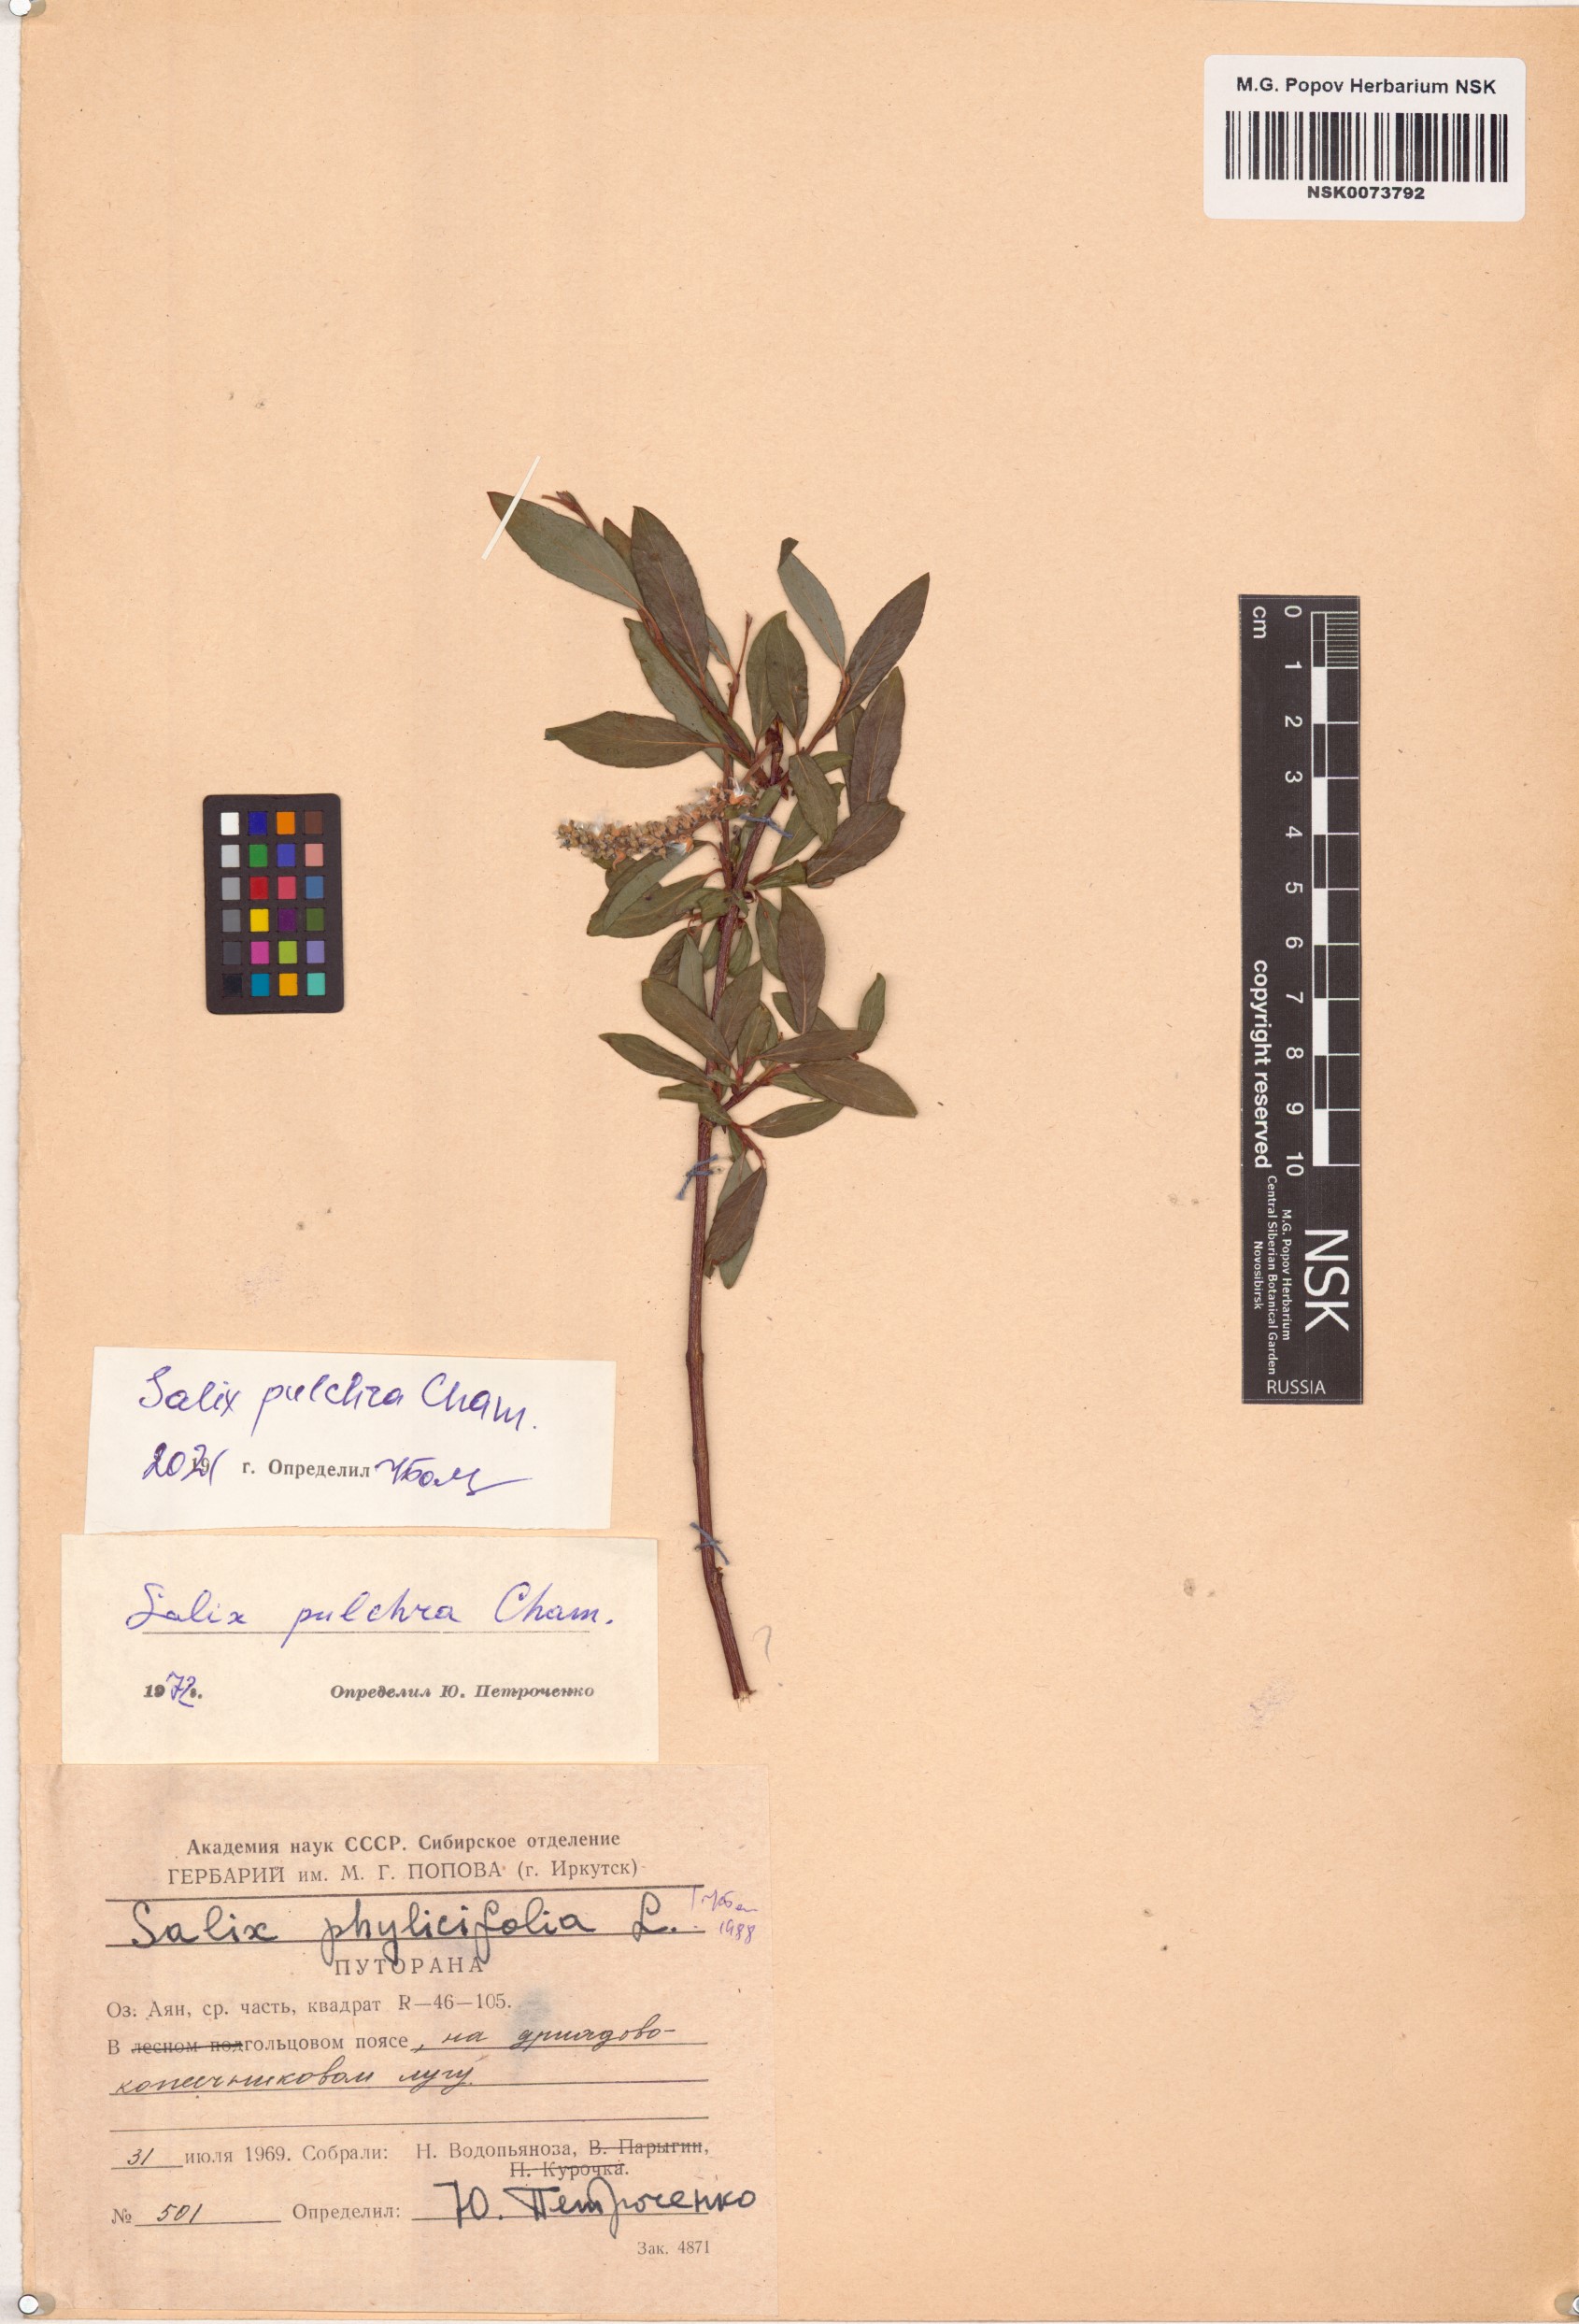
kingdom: Plantae
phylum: Tracheophyta
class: Magnoliopsida
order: Malpighiales
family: Salicaceae
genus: Salix
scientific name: Salix pulchra
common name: Diamond-leaved willow
